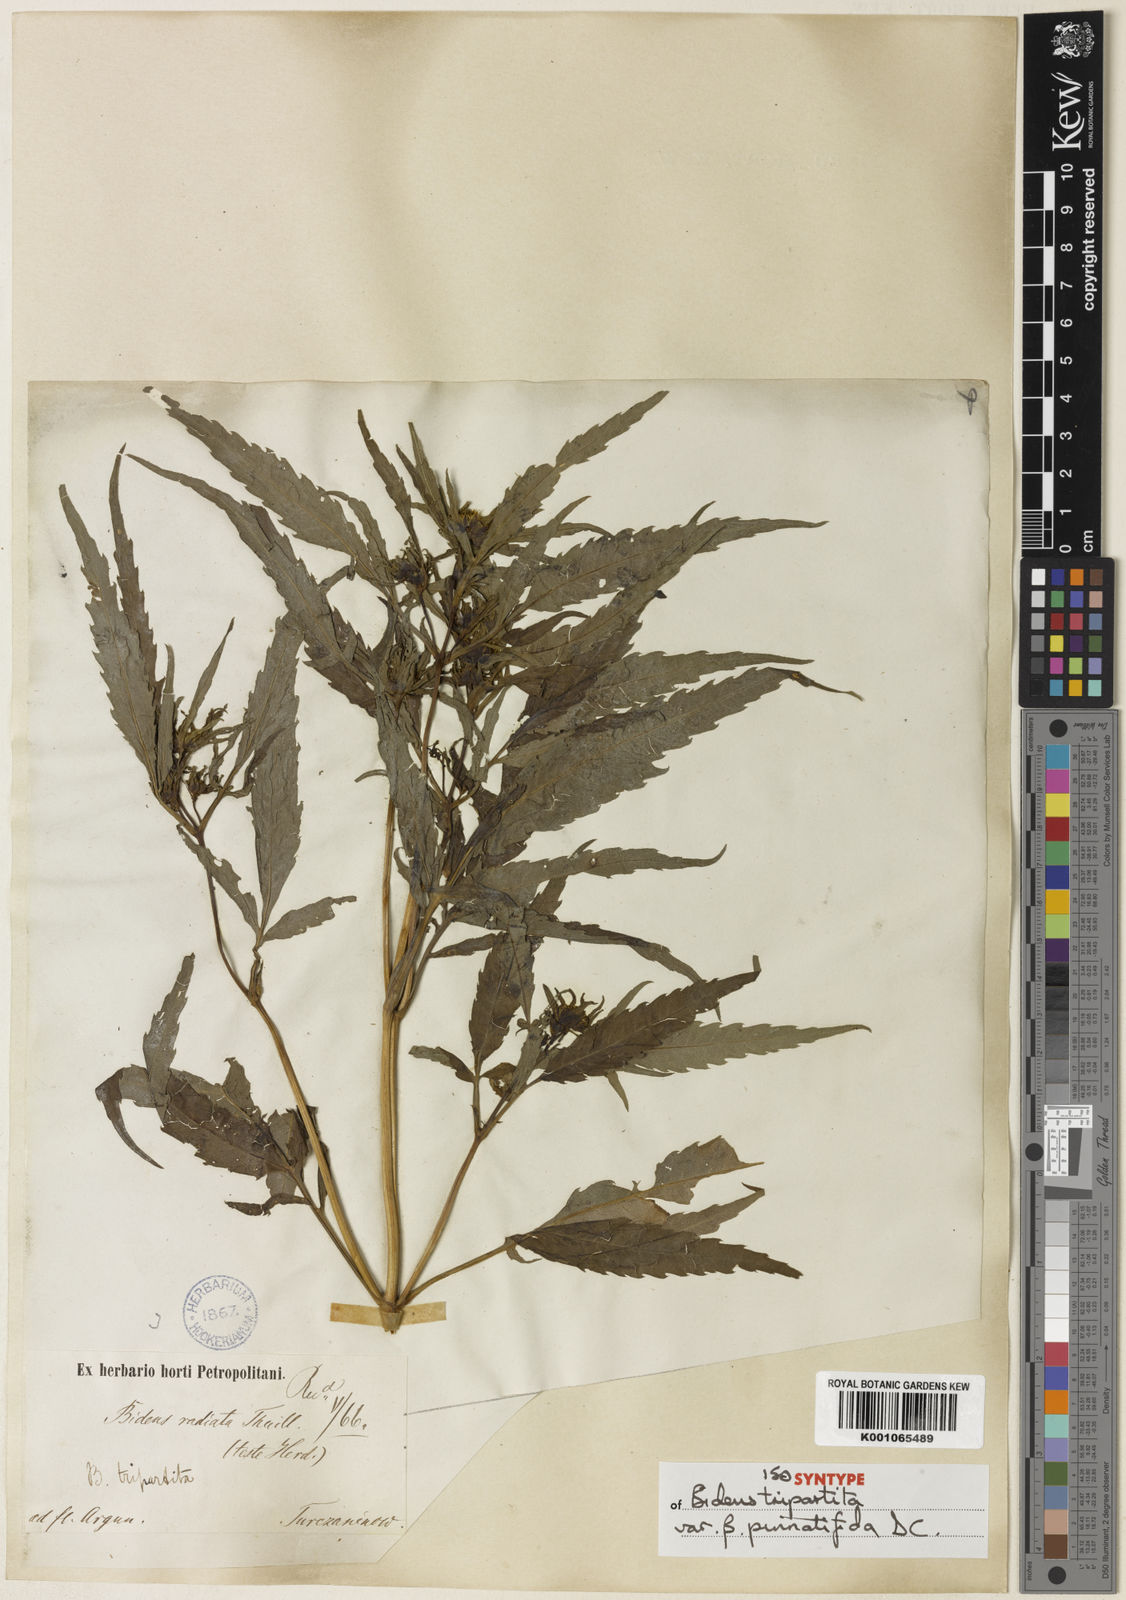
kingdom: Plantae
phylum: Tracheophyta
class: Magnoliopsida
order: Asterales
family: Asteraceae
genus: Bidens
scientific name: Bidens maximowicziana
